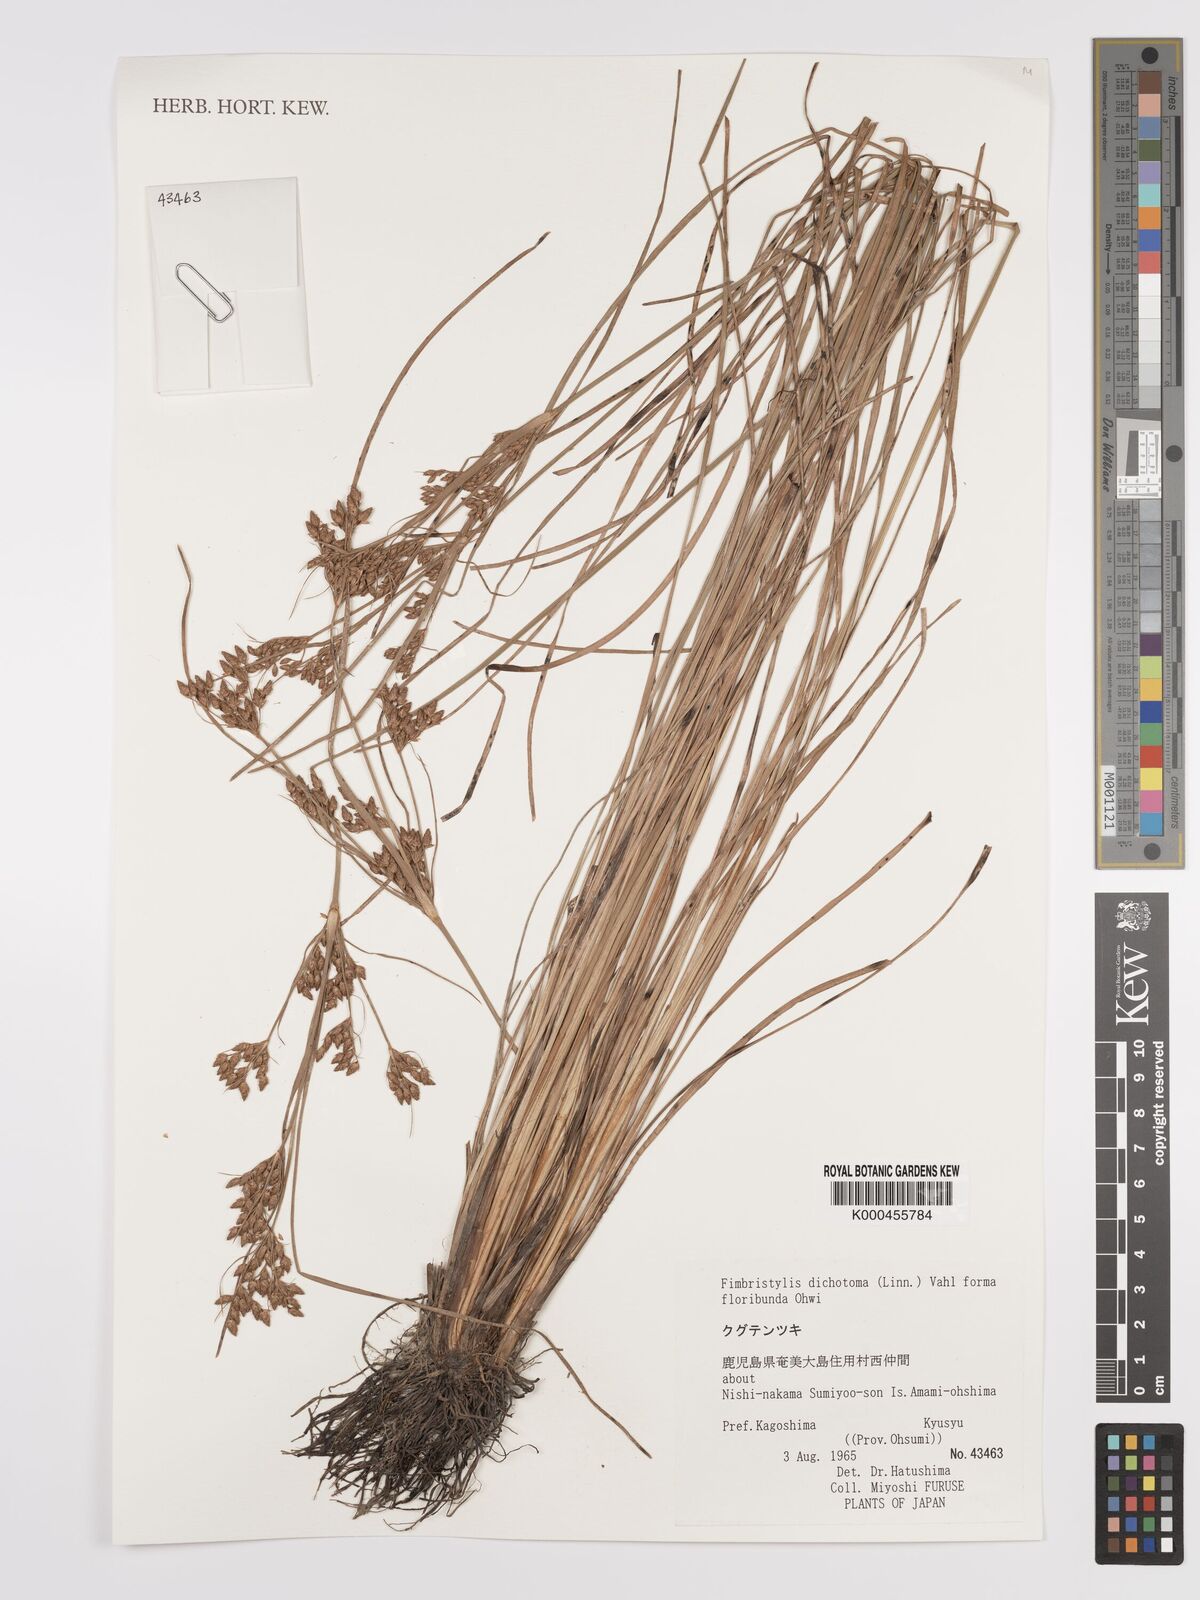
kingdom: Plantae
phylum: Tracheophyta
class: Liliopsida
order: Poales
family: Cyperaceae
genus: Fimbristylis
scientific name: Fimbristylis dichotoma
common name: Forked fimbry
